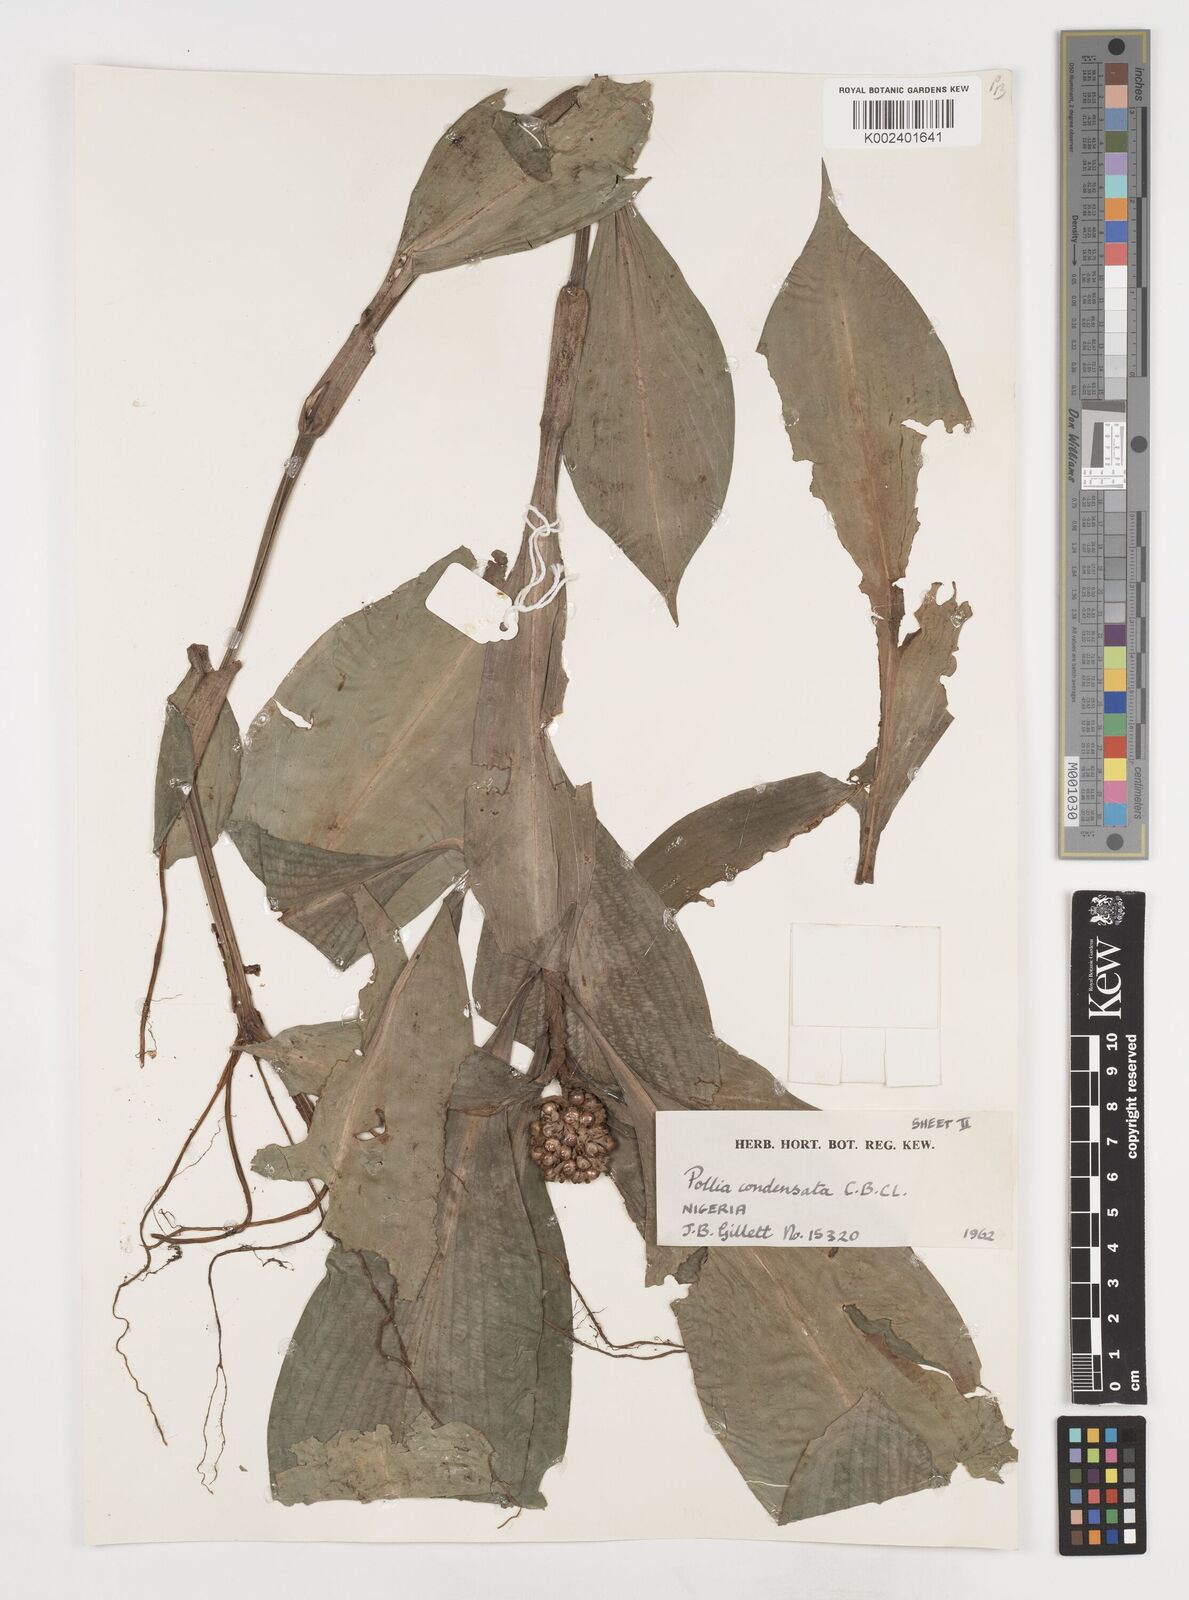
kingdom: Plantae
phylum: Tracheophyta
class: Liliopsida
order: Commelinales
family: Commelinaceae
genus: Pollia
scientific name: Pollia condensata
